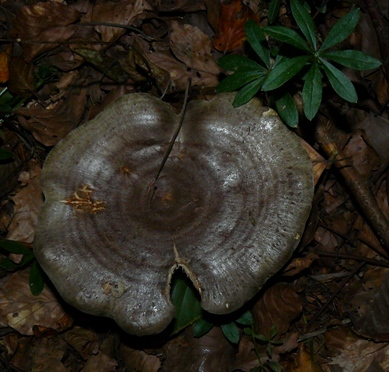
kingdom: Fungi
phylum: Basidiomycota
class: Agaricomycetes
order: Russulales
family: Russulaceae
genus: Lactarius
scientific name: Lactarius circellatus
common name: avnbøg-mælkehat
